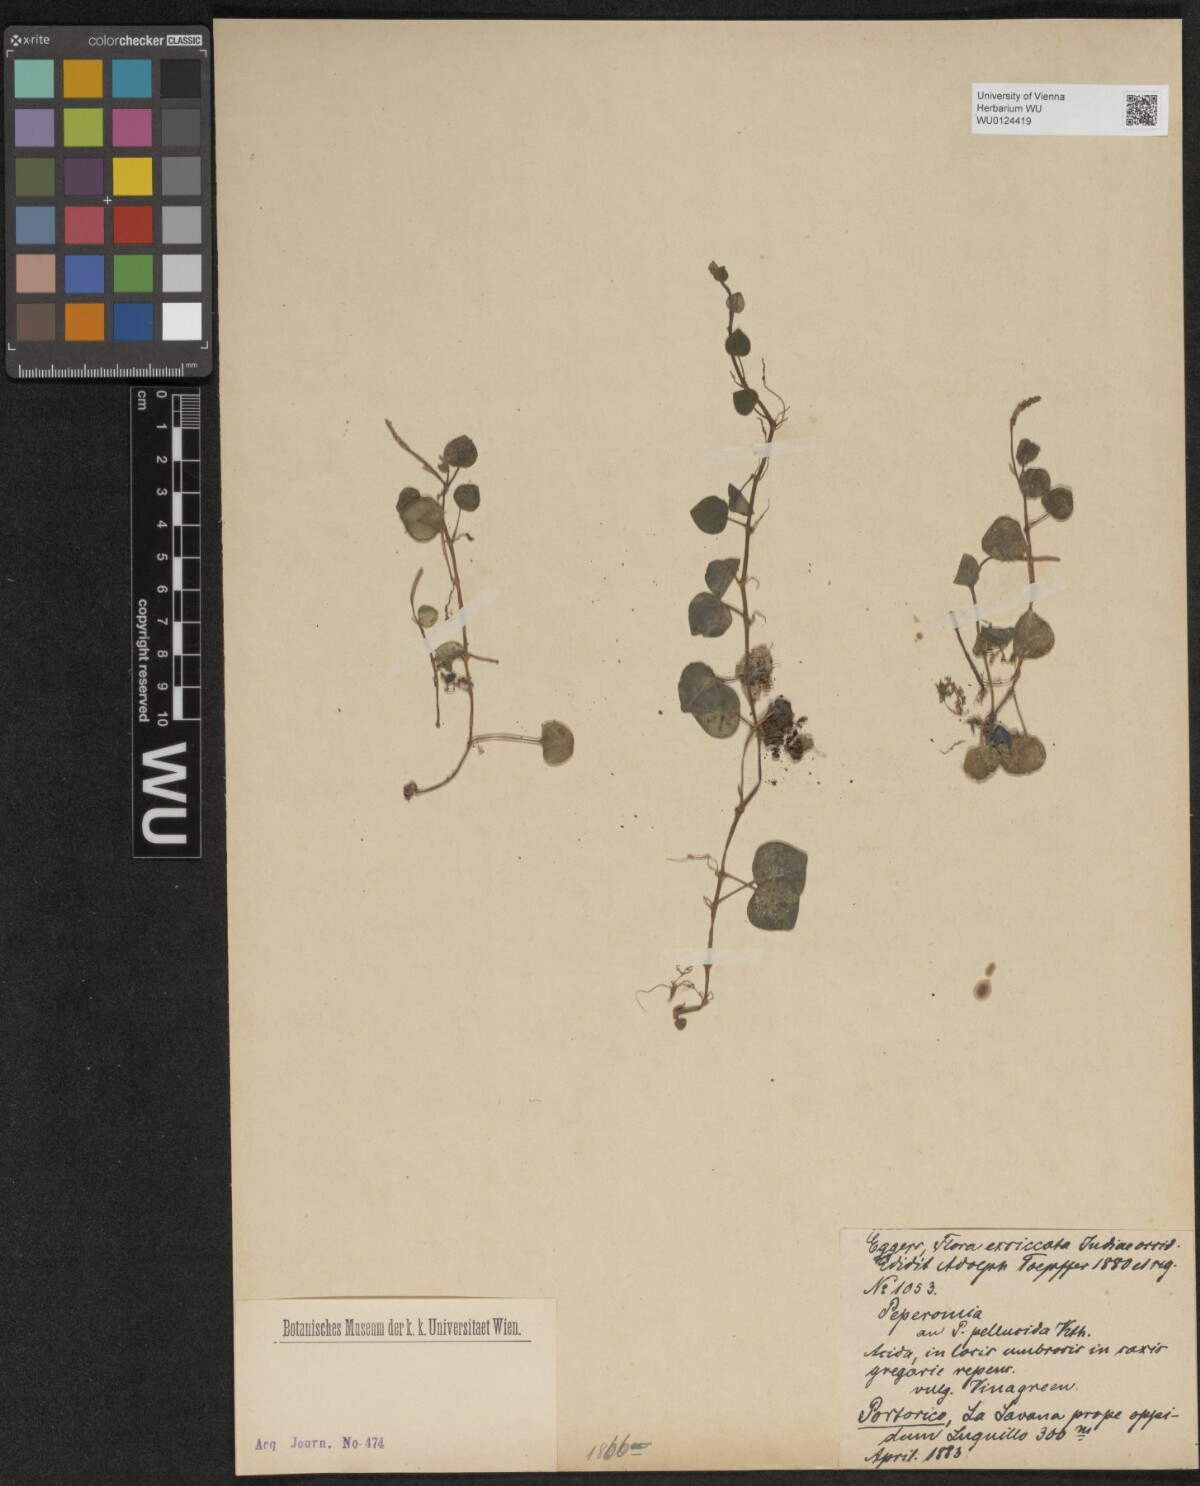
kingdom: Plantae
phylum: Tracheophyta
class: Magnoliopsida
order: Piperales
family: Piperaceae
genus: Peperomia
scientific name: Peperomia pellucida
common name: Man to man
